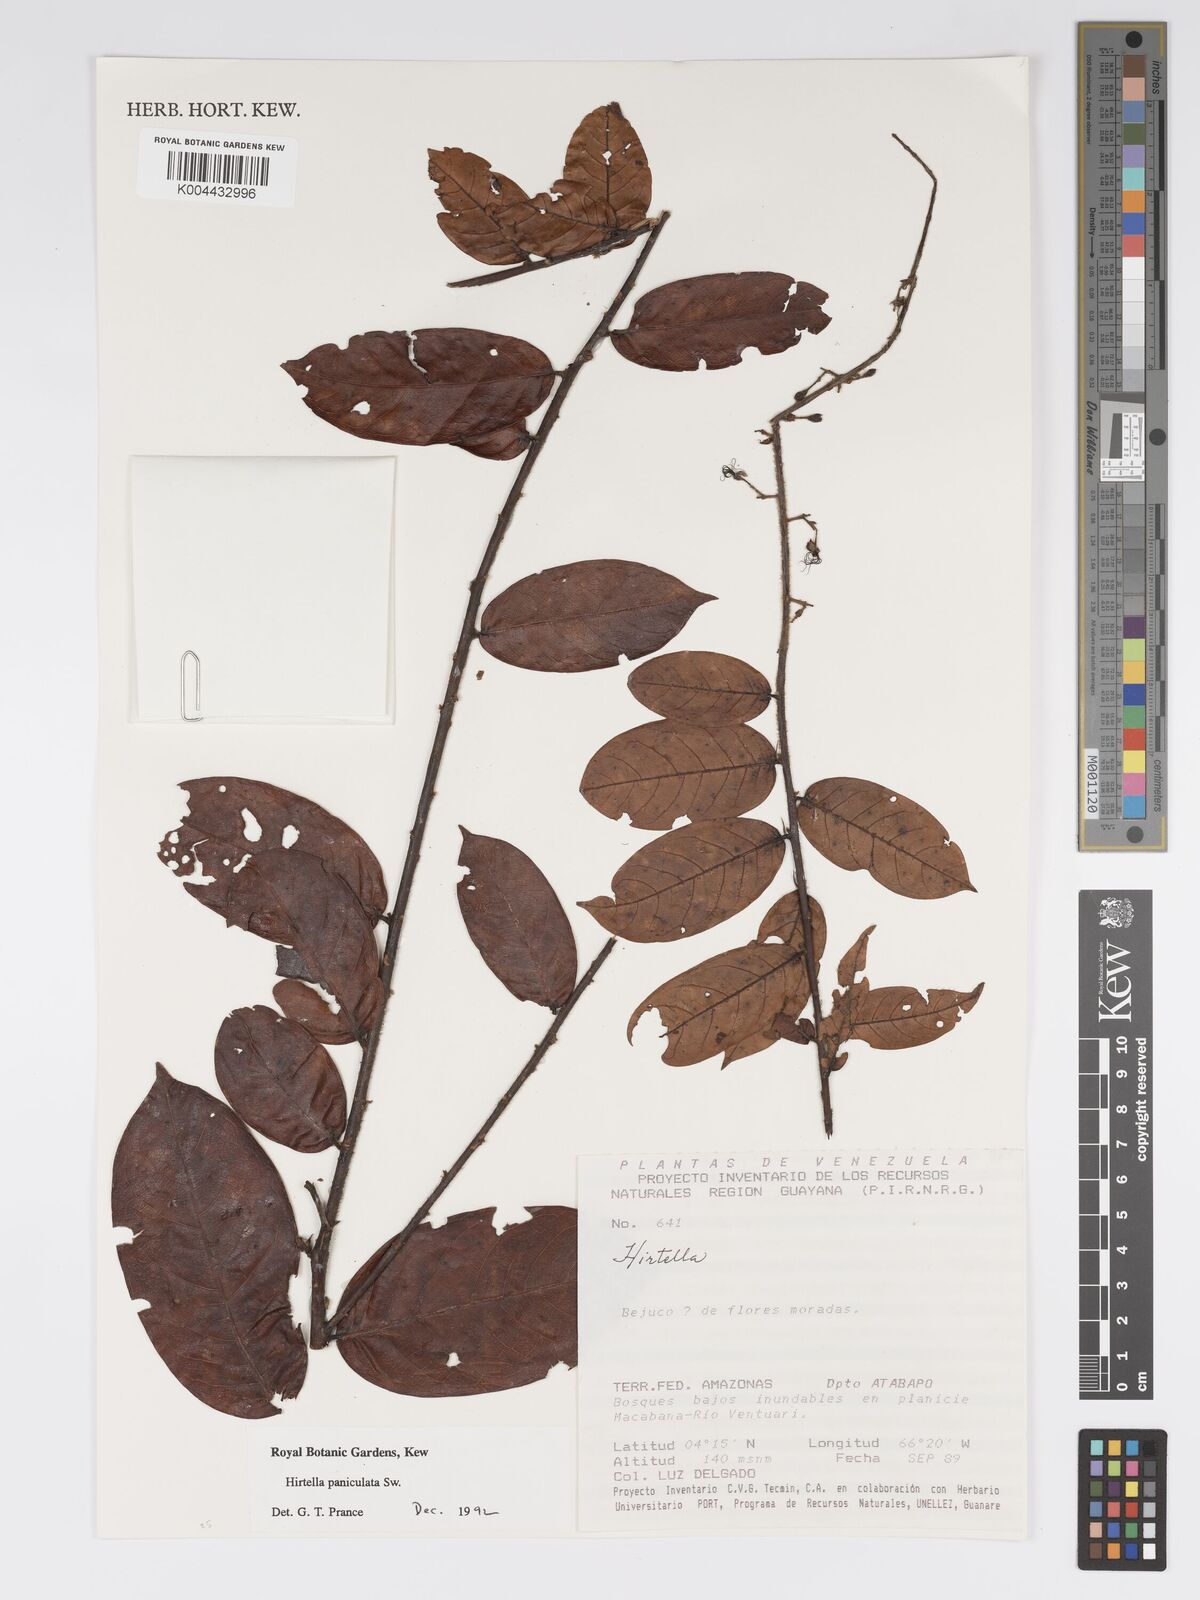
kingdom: Plantae
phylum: Tracheophyta
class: Magnoliopsida
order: Malpighiales
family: Chrysobalanaceae
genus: Hirtella
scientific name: Hirtella
